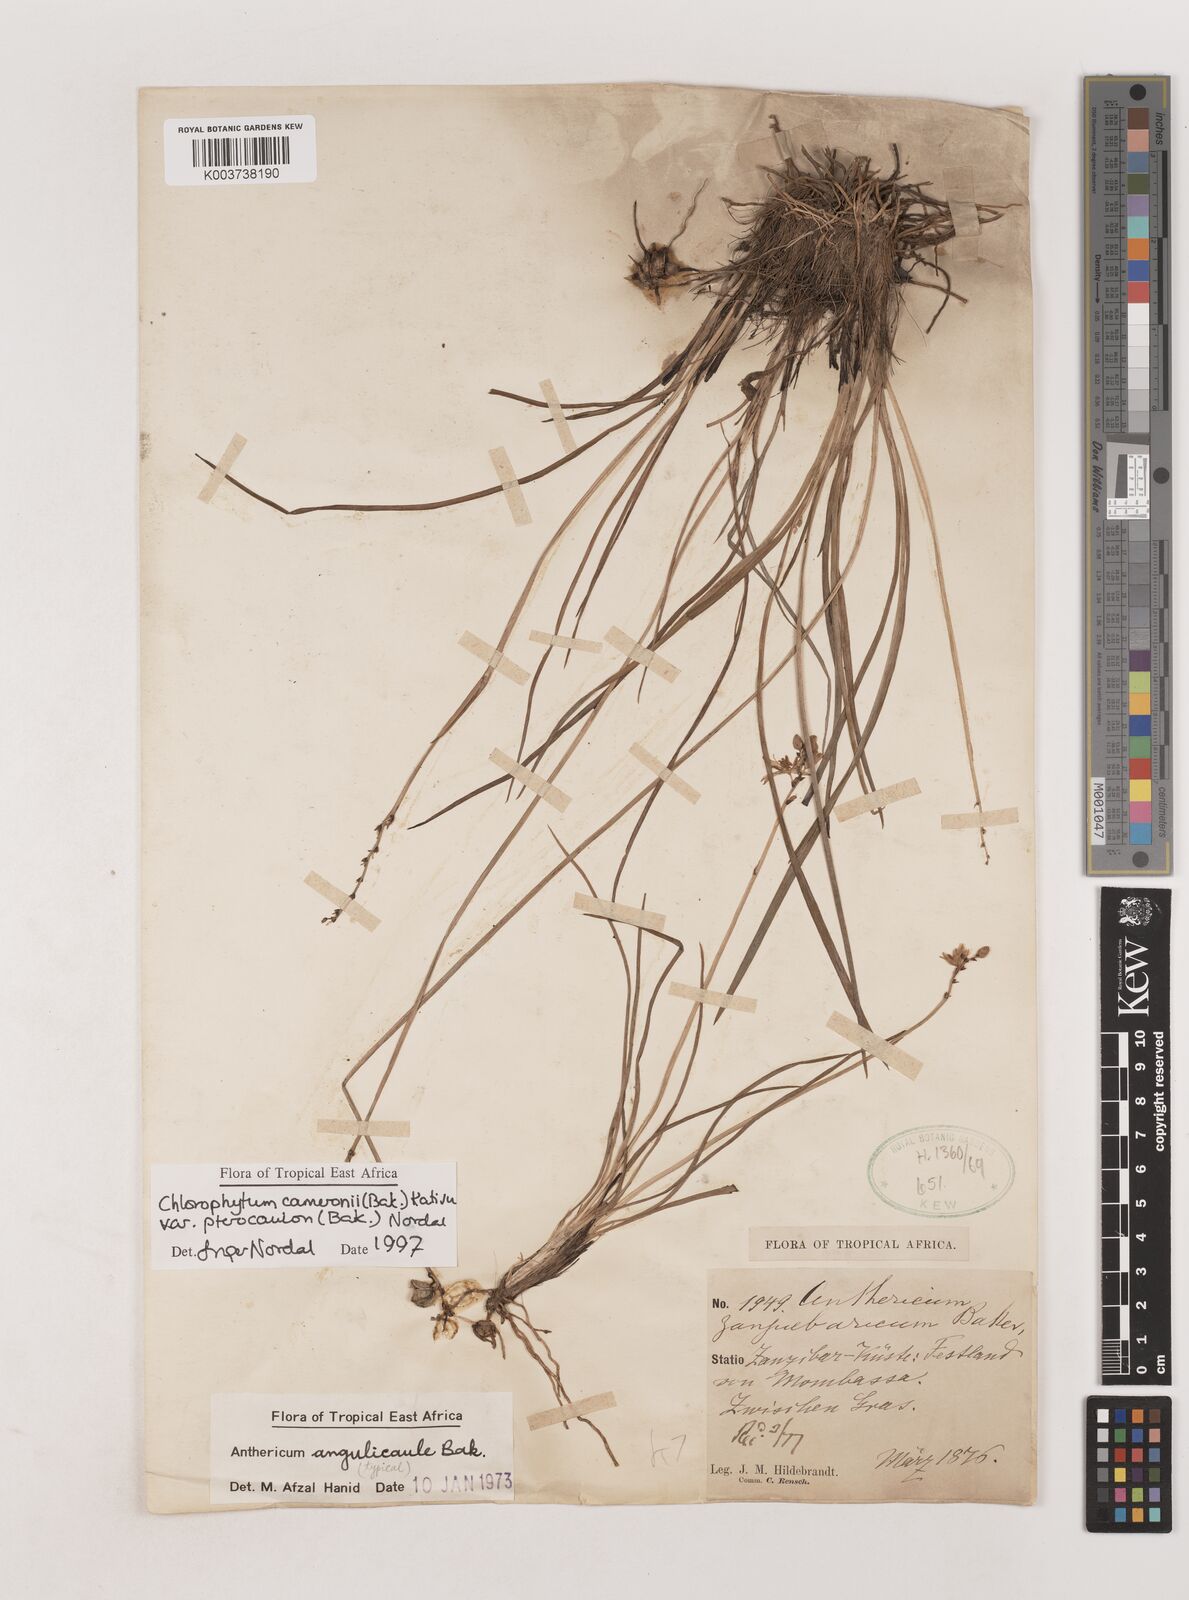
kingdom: Plantae
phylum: Tracheophyta
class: Liliopsida
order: Asparagales
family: Asparagaceae
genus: Chlorophytum
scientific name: Chlorophytum cameronii
